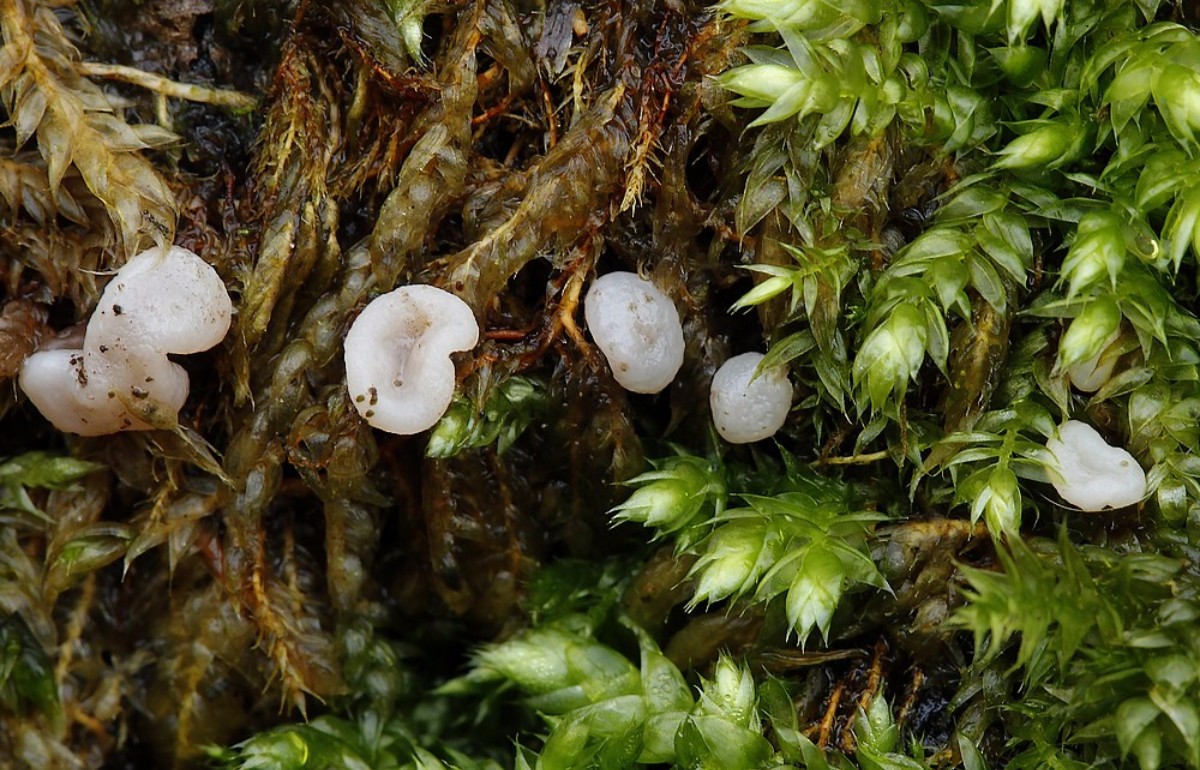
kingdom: Fungi
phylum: Ascomycota
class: Leotiomycetes
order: Helotiales
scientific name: Helotiales
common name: stilkskiveordenen
